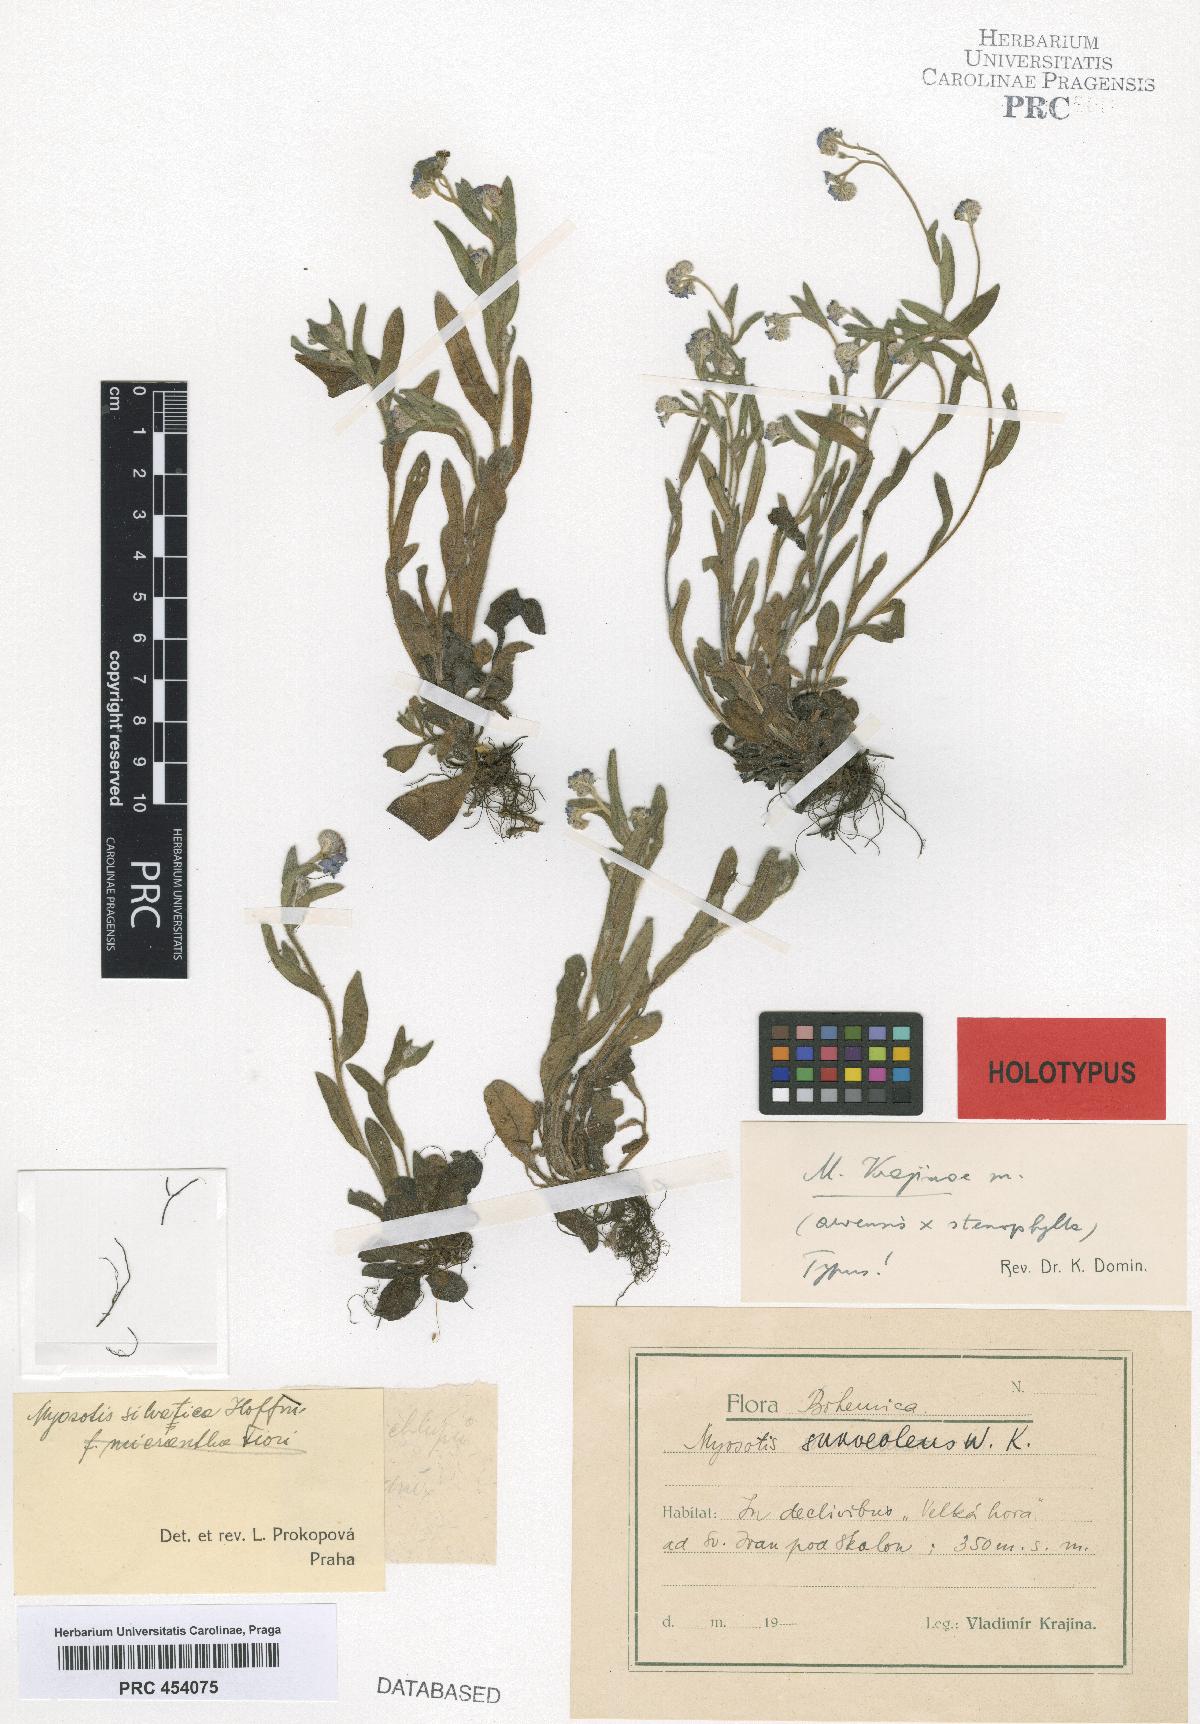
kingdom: Plantae
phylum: Tracheophyta
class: Magnoliopsida
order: Boraginales
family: Boraginaceae
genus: Myosotis
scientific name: Myosotis krajinae
